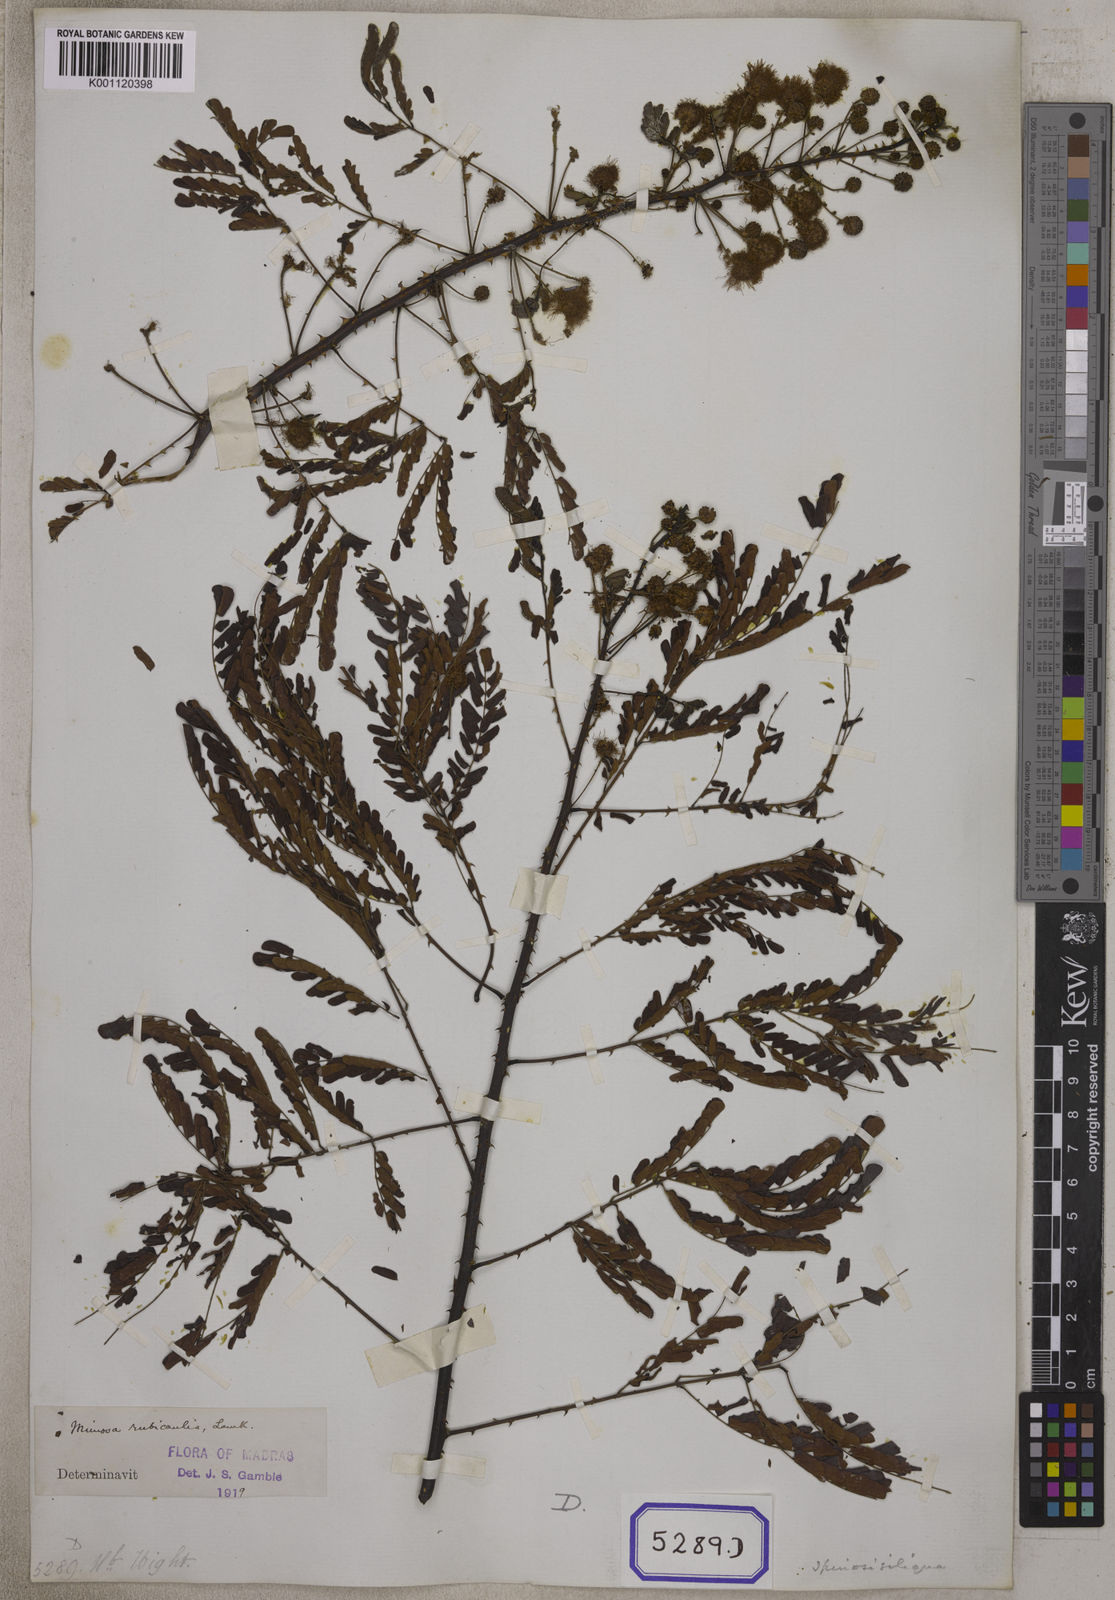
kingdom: Plantae
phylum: Tracheophyta
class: Magnoliopsida
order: Fabales
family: Fabaceae
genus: Mimosa
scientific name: Mimosa rubicaulis
